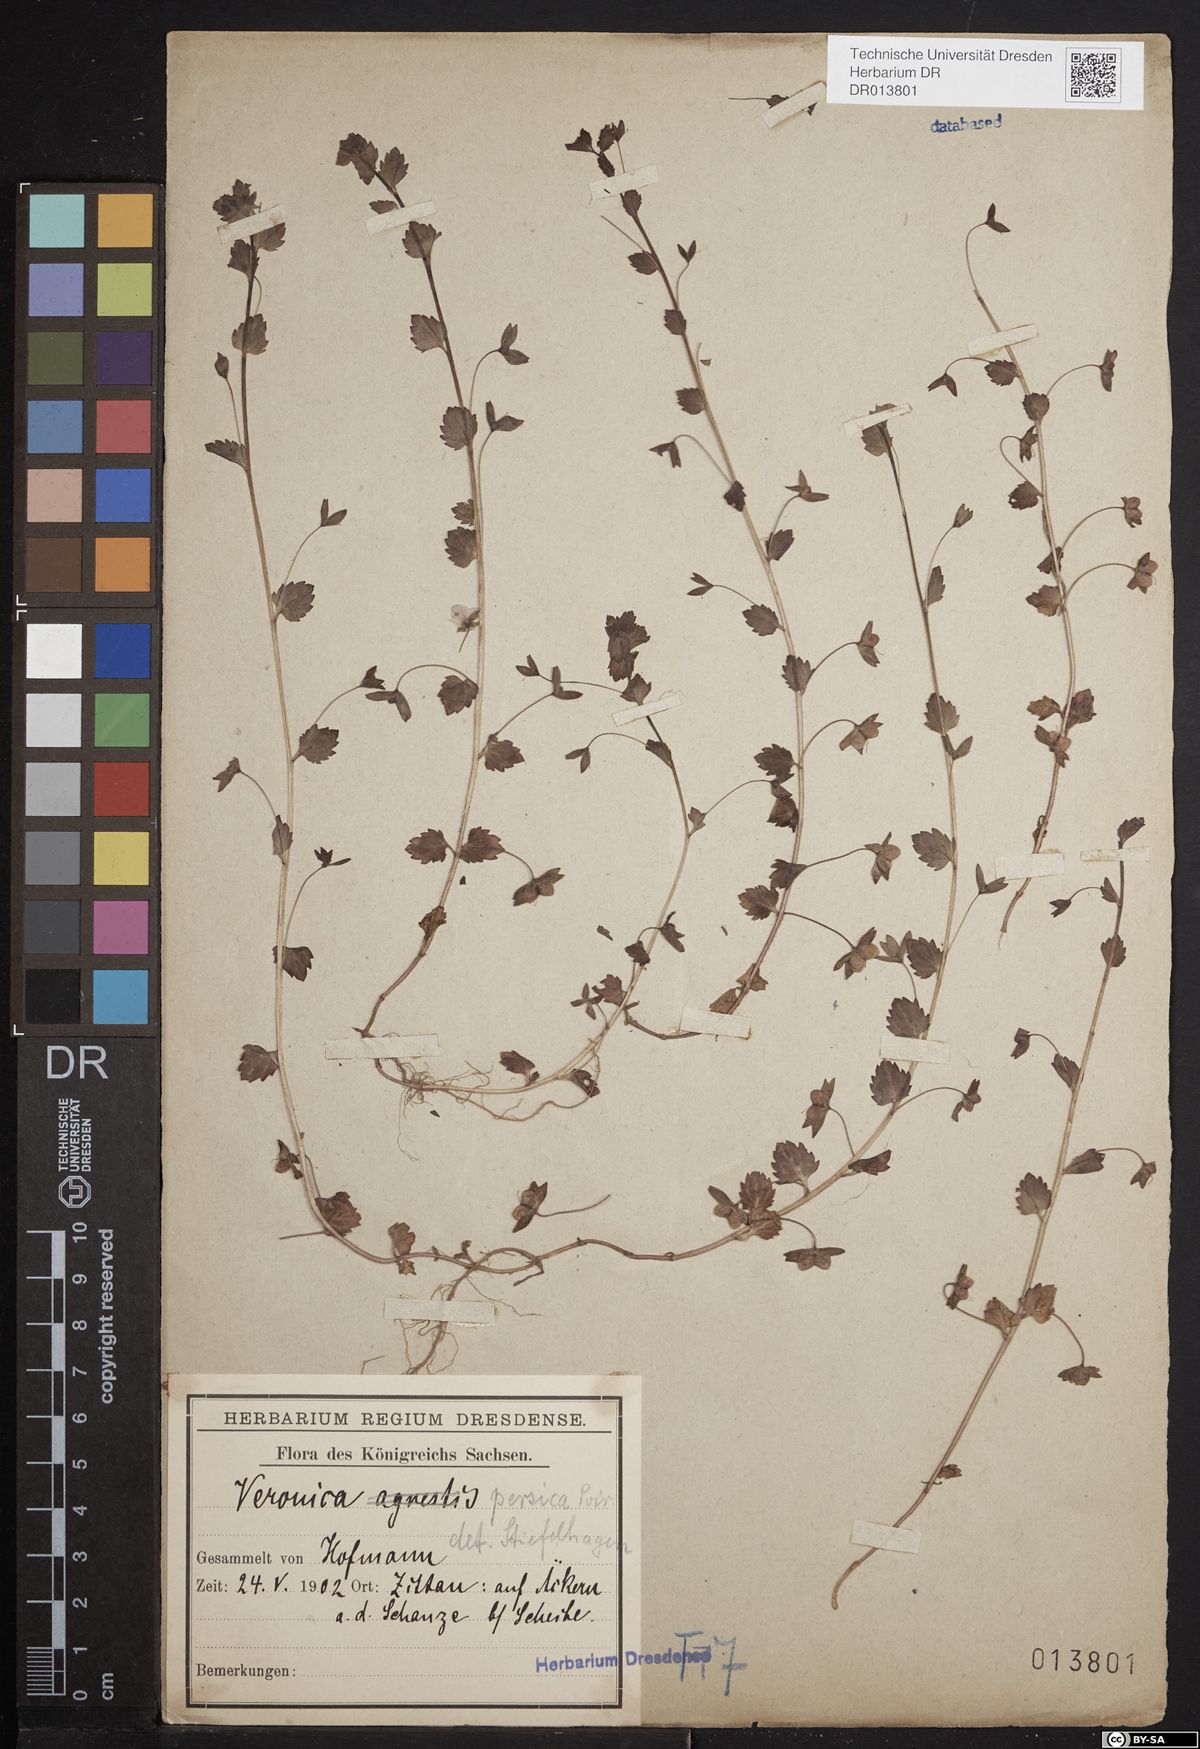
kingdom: Plantae
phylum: Tracheophyta
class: Magnoliopsida
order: Lamiales
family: Plantaginaceae
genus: Veronica
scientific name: Veronica persica
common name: Common field-speedwell
